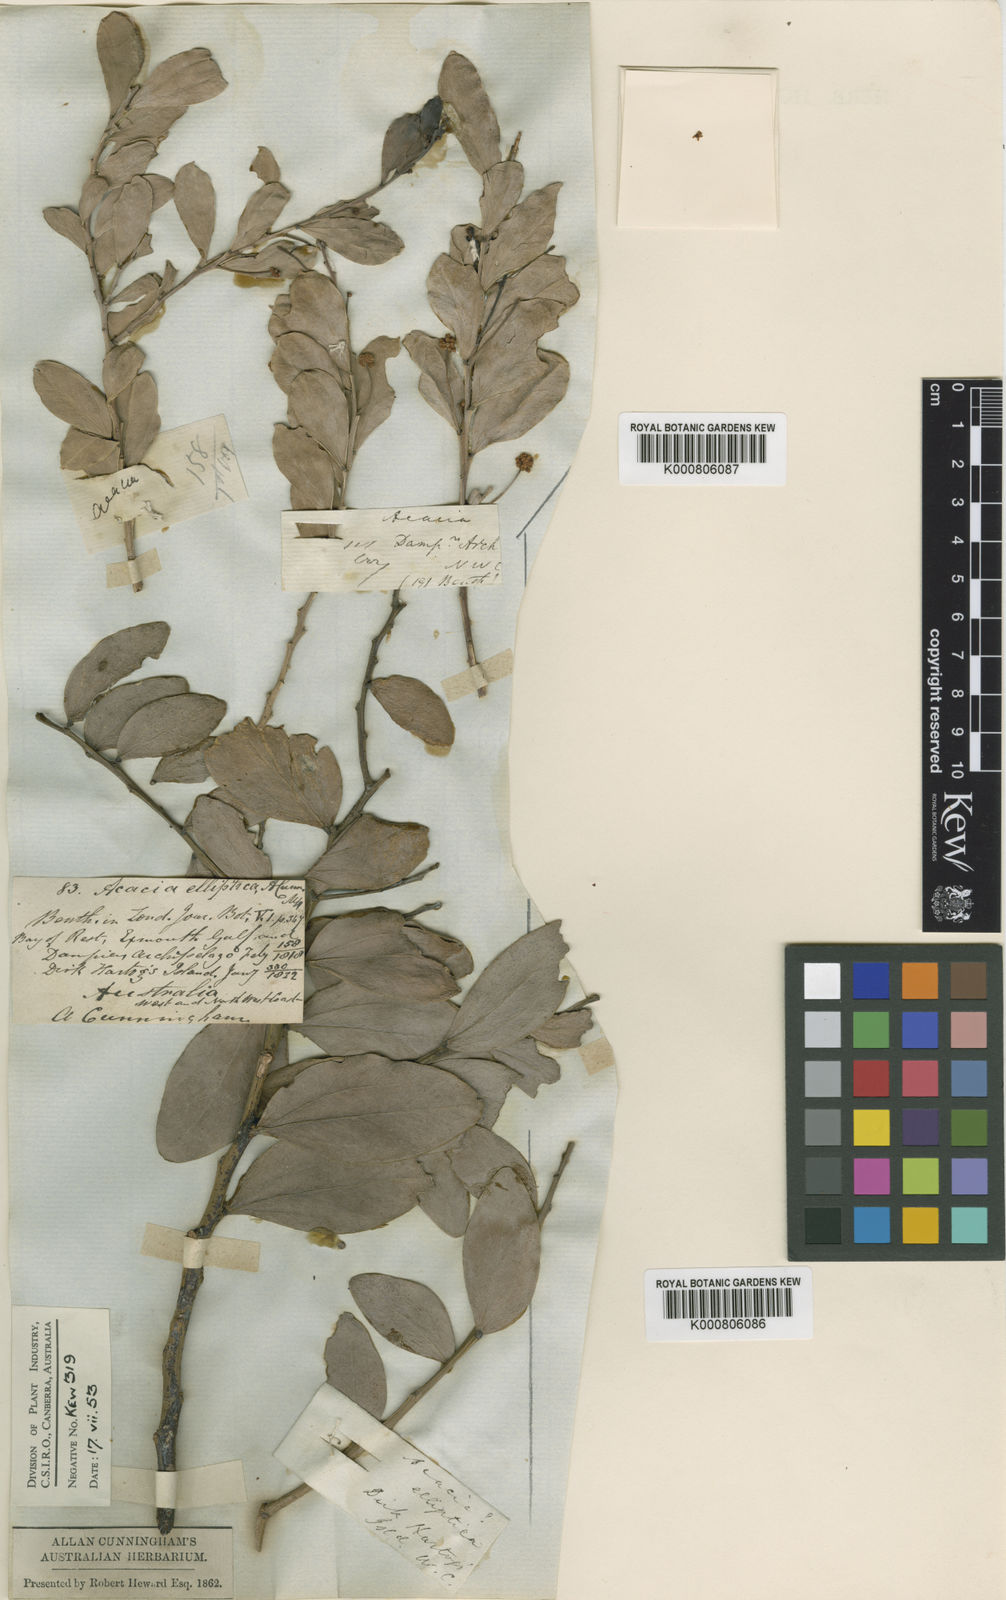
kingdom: Plantae
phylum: Tracheophyta
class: Magnoliopsida
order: Fabales
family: Fabaceae
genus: Acacia
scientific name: Acacia bivenosa
